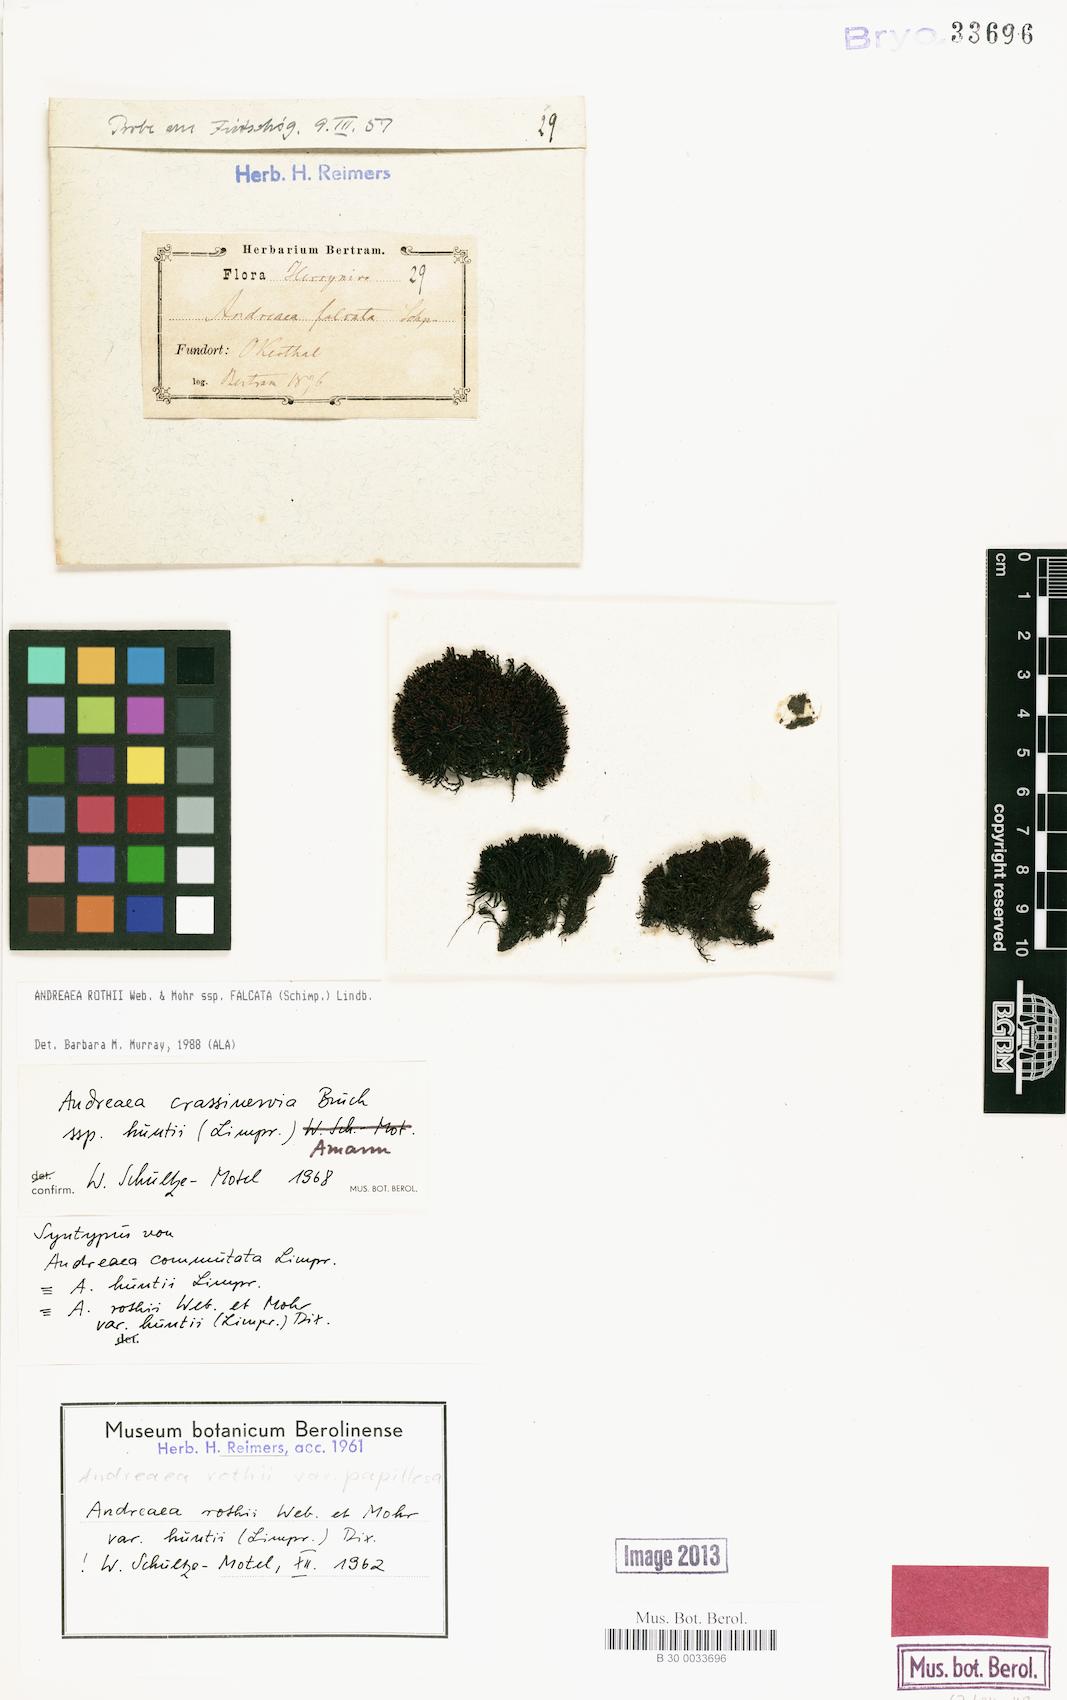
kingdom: Plantae
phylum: Bryophyta
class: Andreaeopsida
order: Andreaeales
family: Andreaeaceae
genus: Andreaea
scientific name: Andreaea rothii
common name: Dusky rock moss
